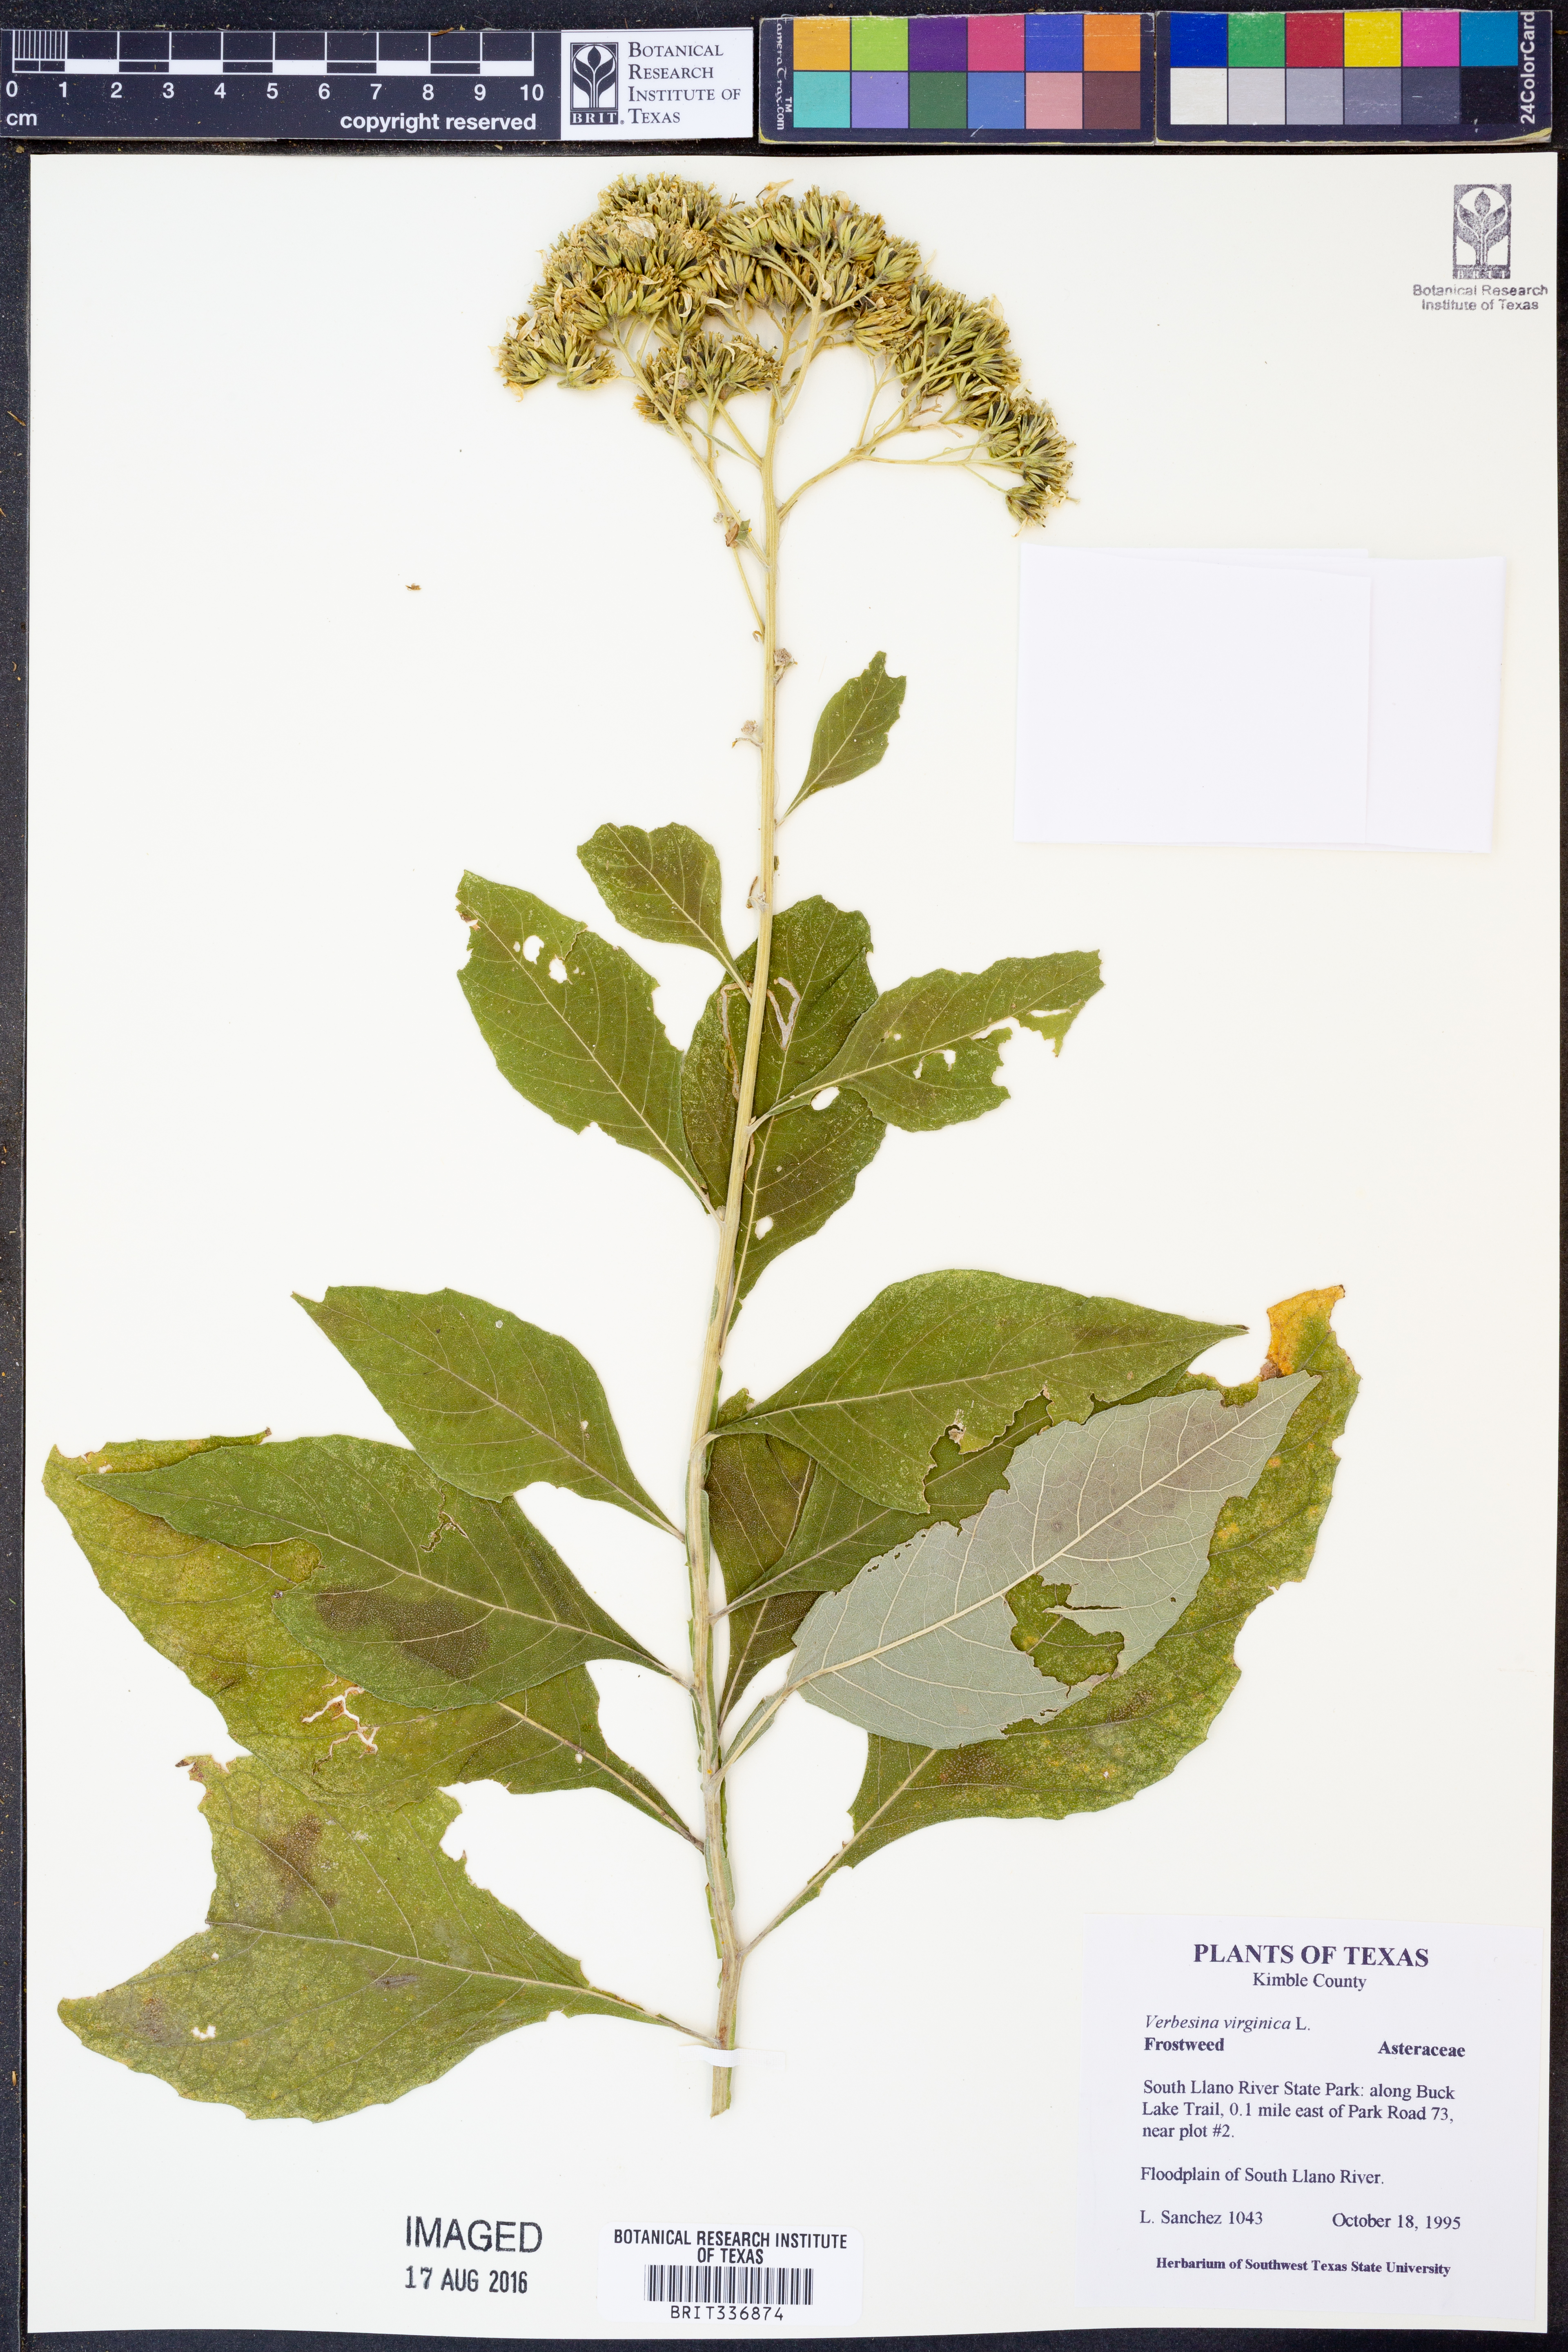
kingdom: Plantae
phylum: Tracheophyta
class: Magnoliopsida
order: Asterales
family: Asteraceae
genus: Verbesina
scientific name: Verbesina virginica
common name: Frostweed
